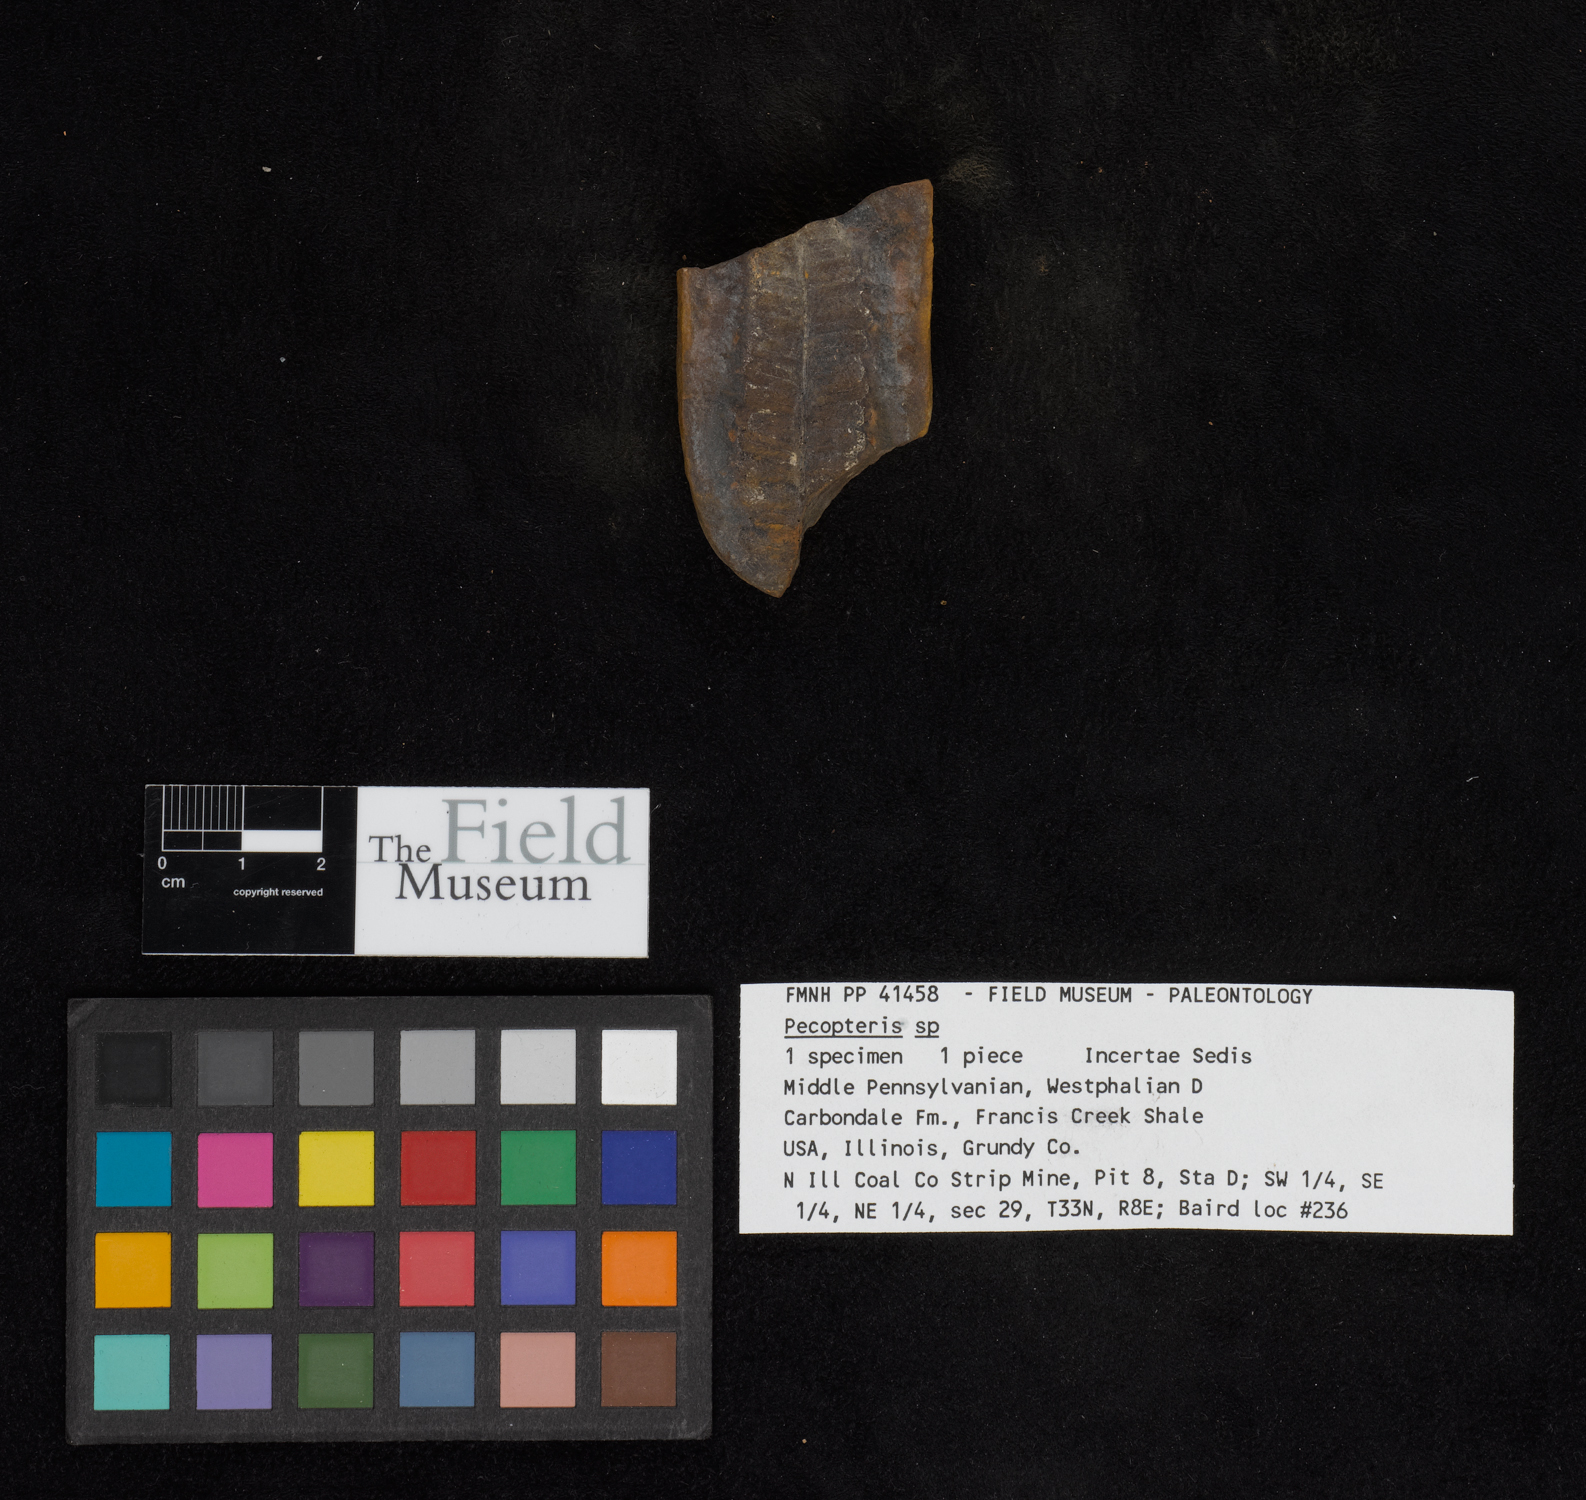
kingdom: Plantae
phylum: Tracheophyta
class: Polypodiopsida
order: Marattiales
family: Asterothecaceae
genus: Pecopteris
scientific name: Pecopteris
